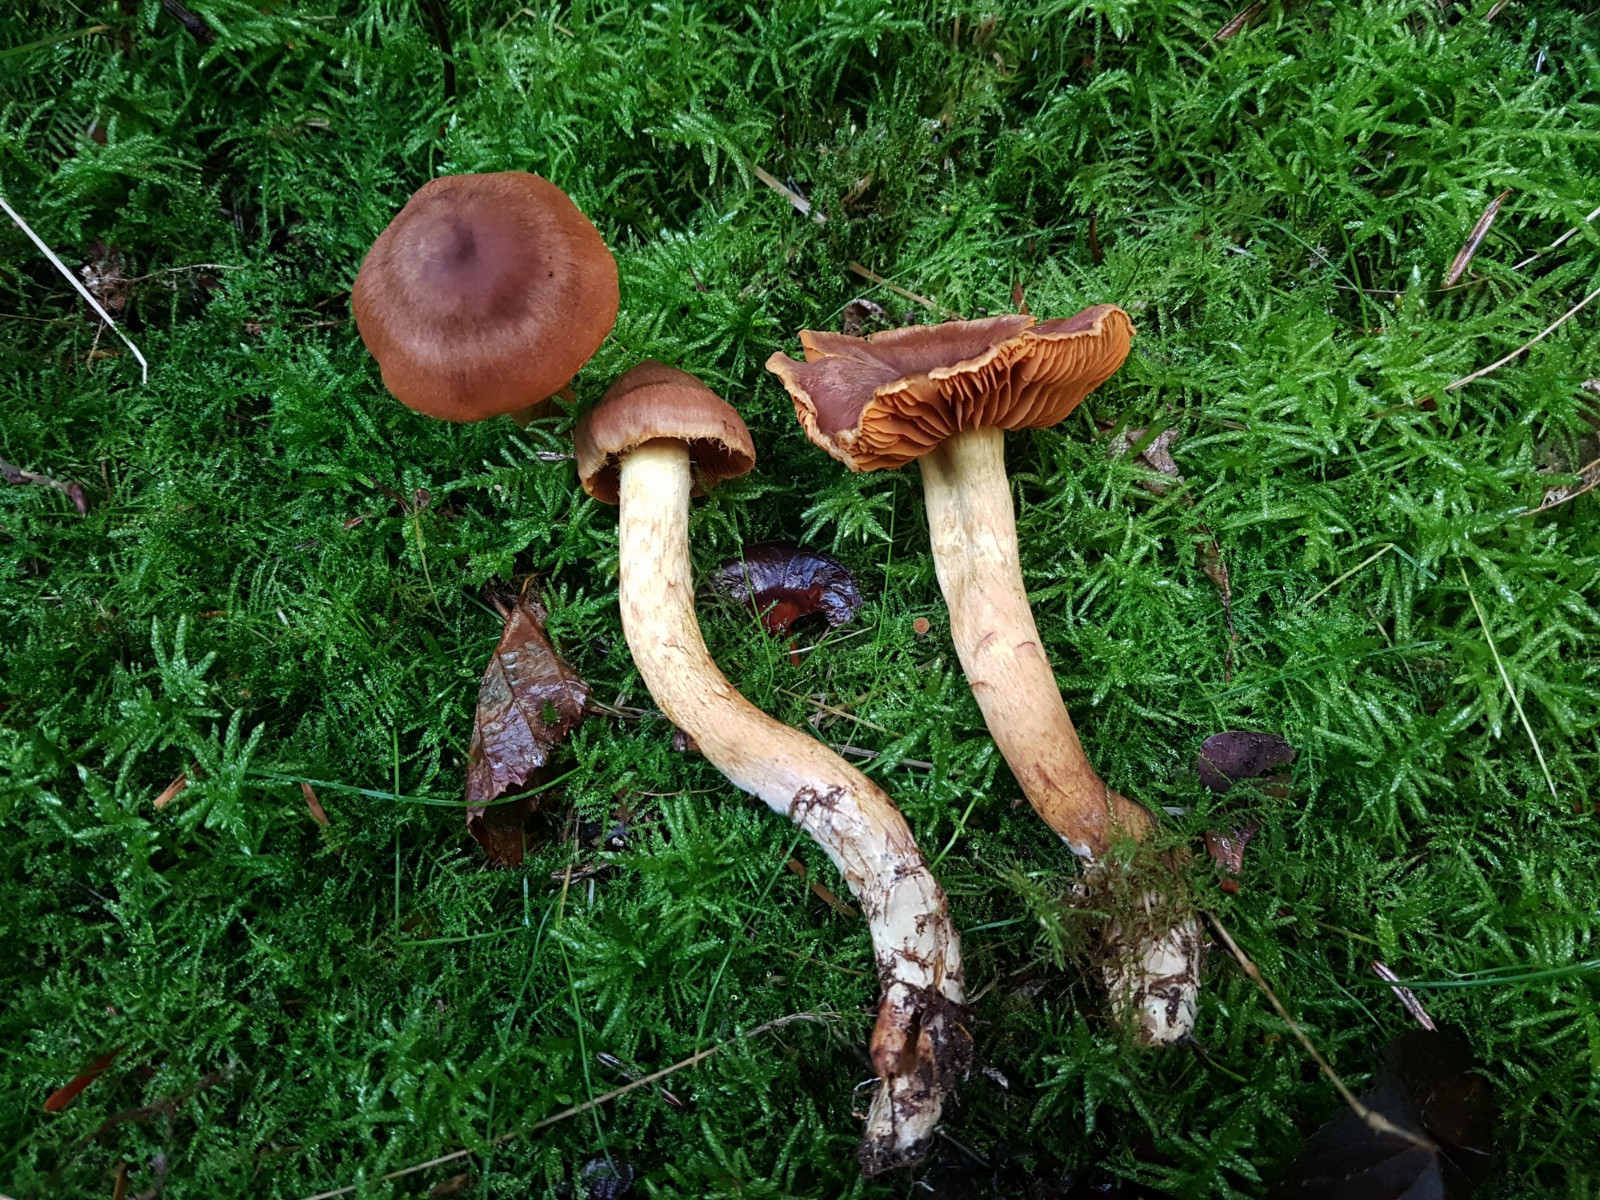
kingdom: Fungi
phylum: Basidiomycota
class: Agaricomycetes
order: Agaricales
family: Cortinariaceae
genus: Cortinarius
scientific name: Cortinarius malicorius
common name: grønkødet slørhat
